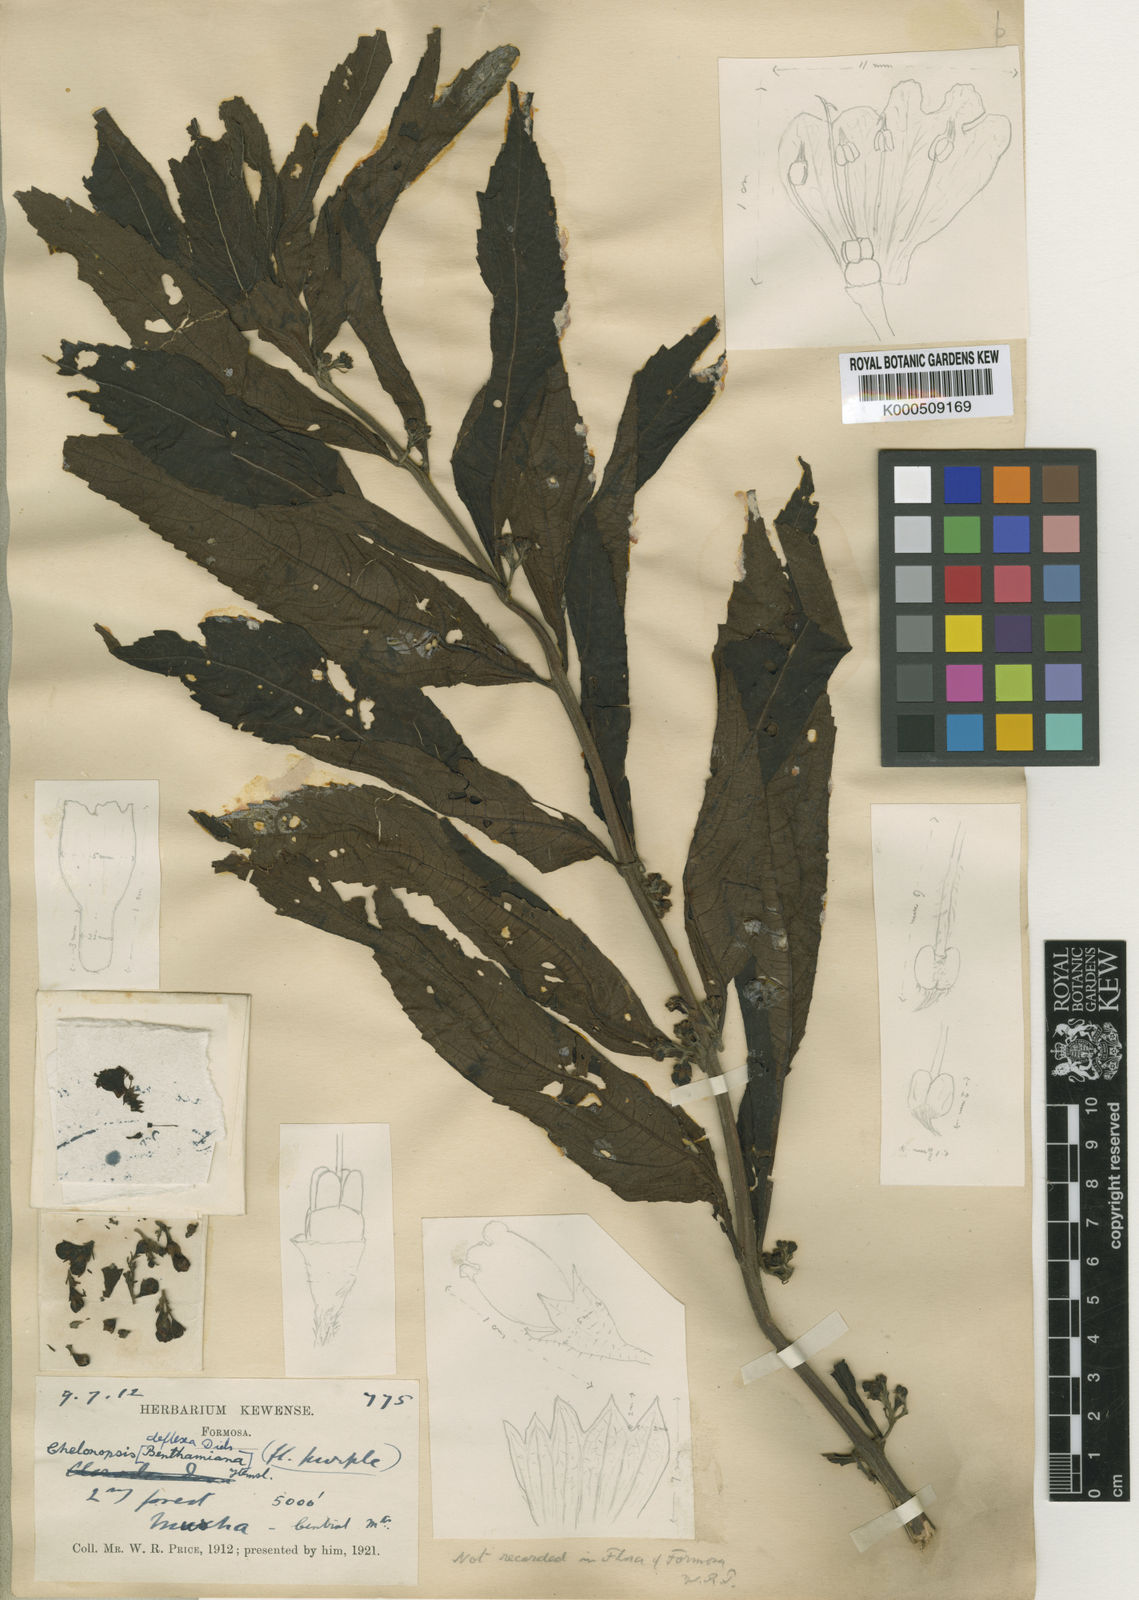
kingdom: Plantae
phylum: Tracheophyta
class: Magnoliopsida
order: Lamiales
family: Lamiaceae
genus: Chelonopsis
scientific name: Chelonopsis deflexa
